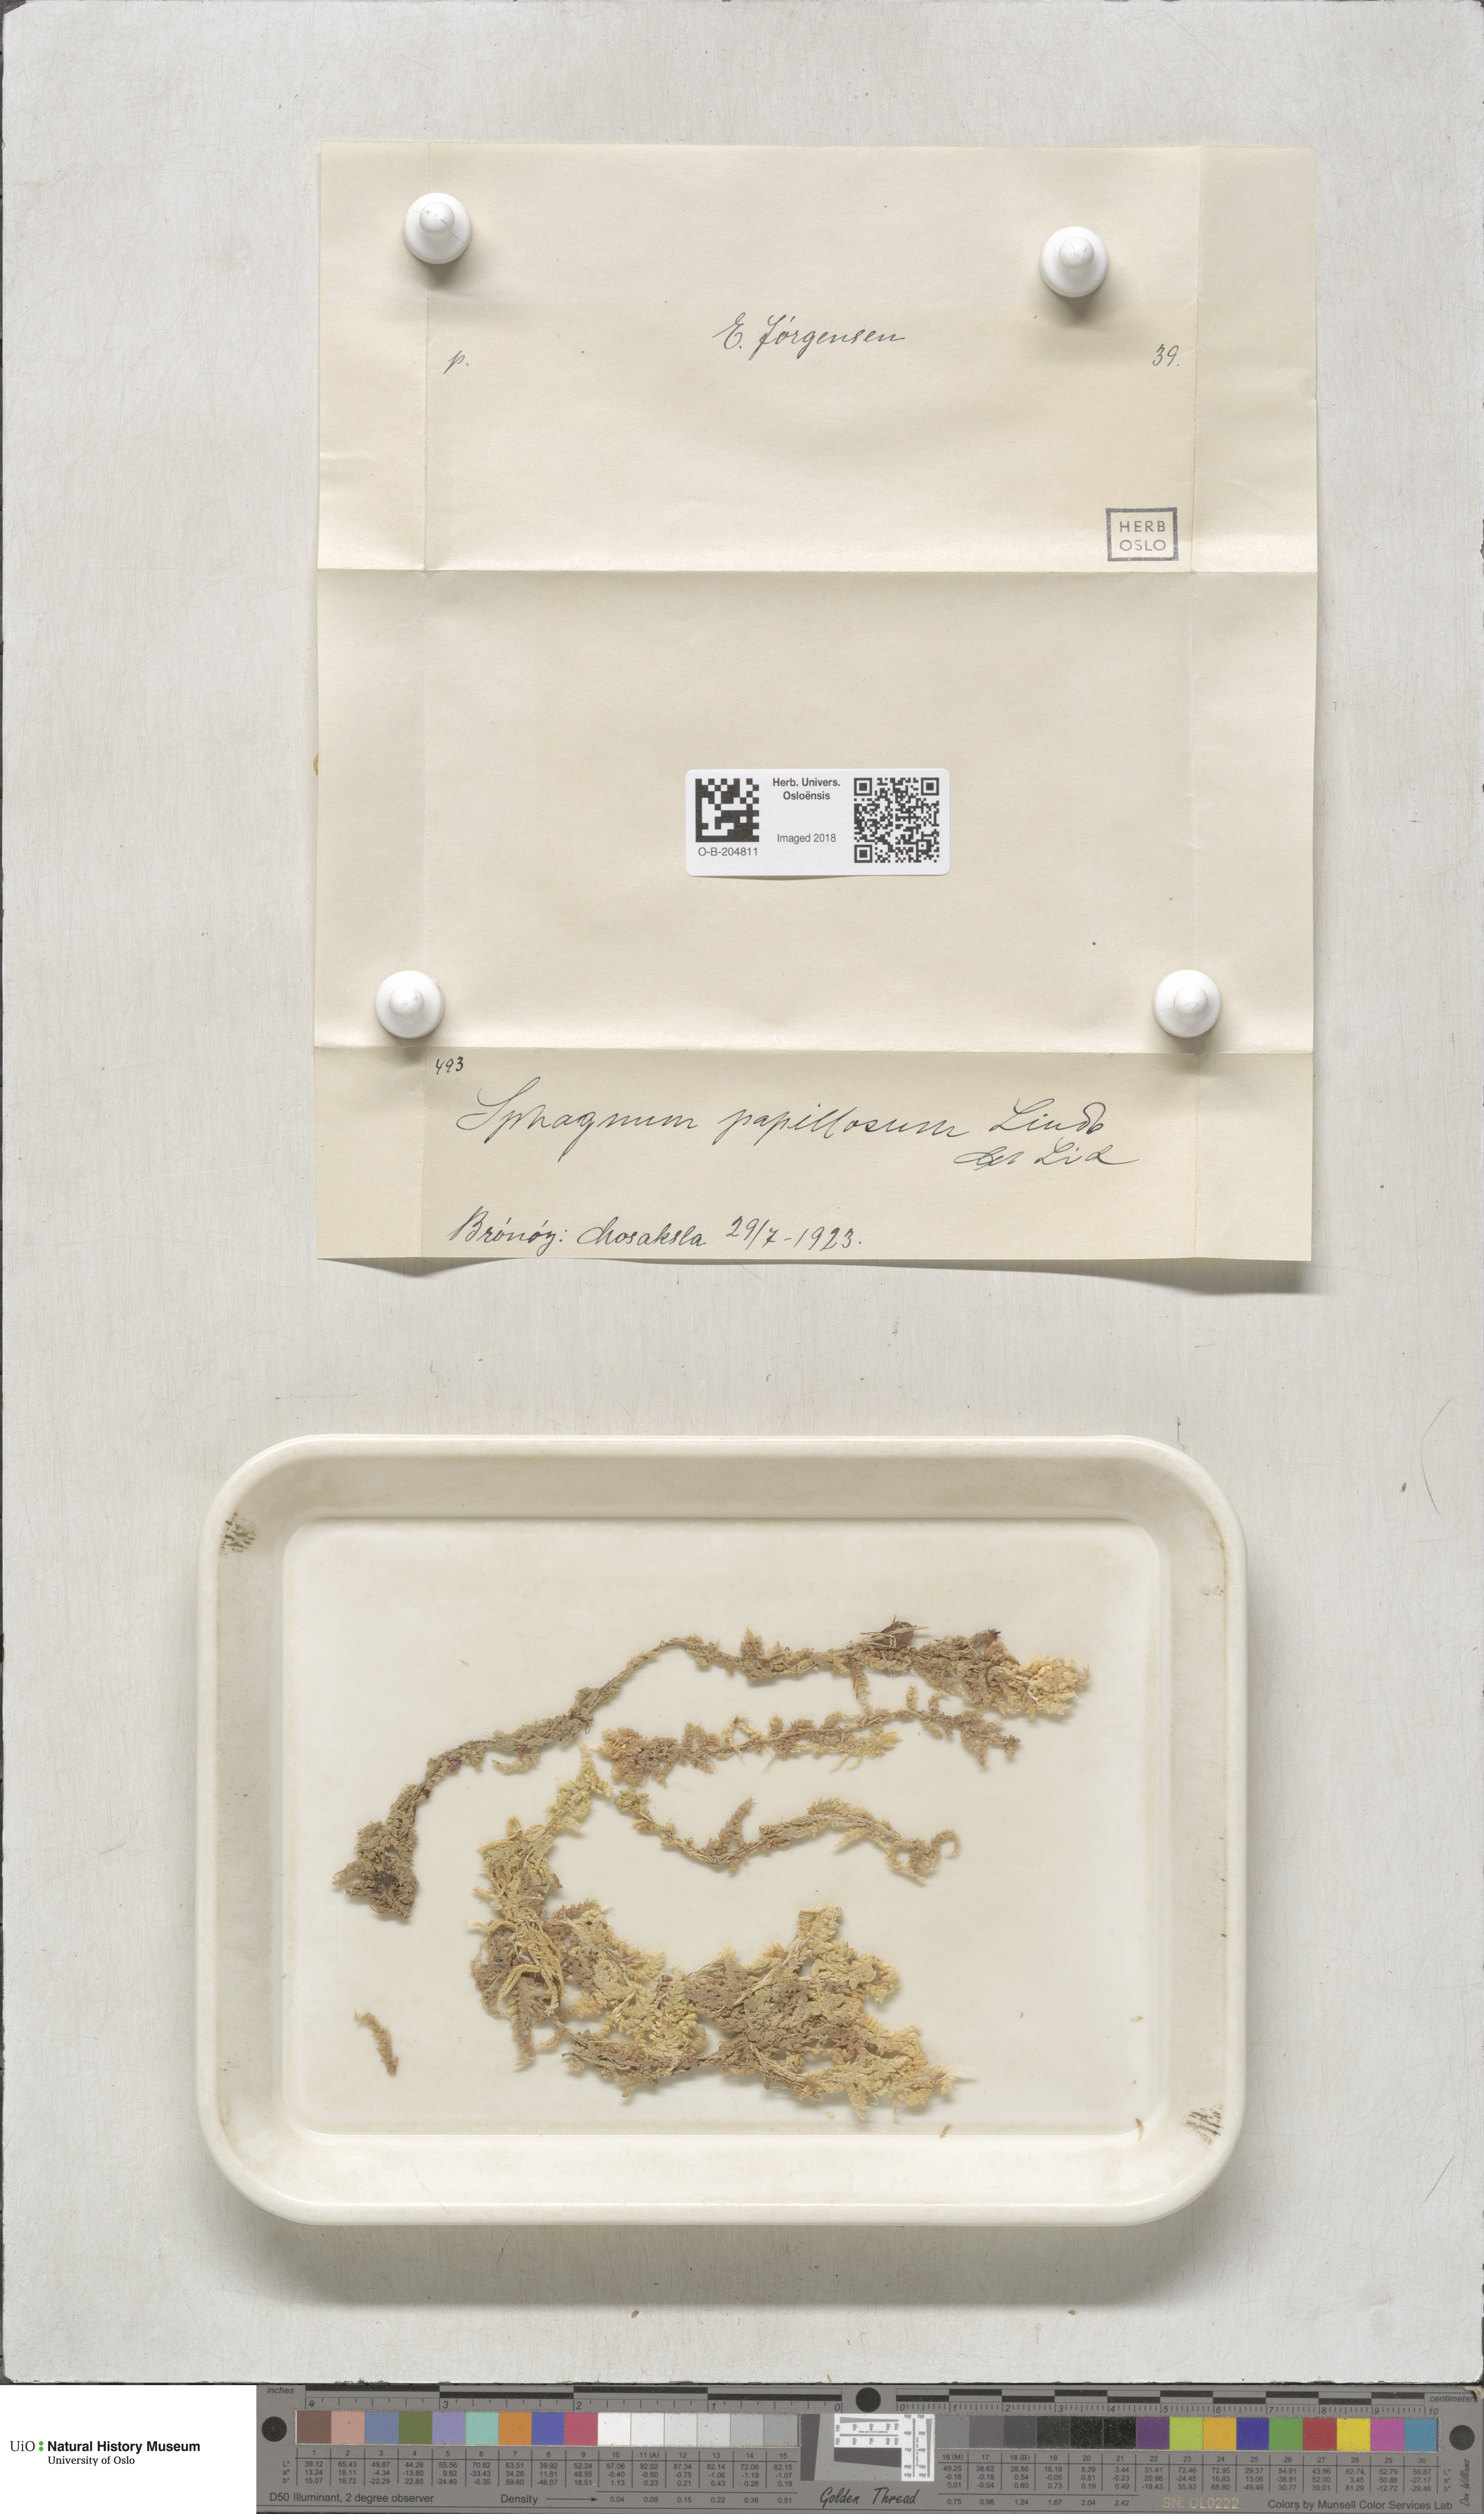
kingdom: Plantae
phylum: Bryophyta
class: Sphagnopsida
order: Sphagnales
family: Sphagnaceae
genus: Sphagnum
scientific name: Sphagnum papillosum
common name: Papillose peat moss
